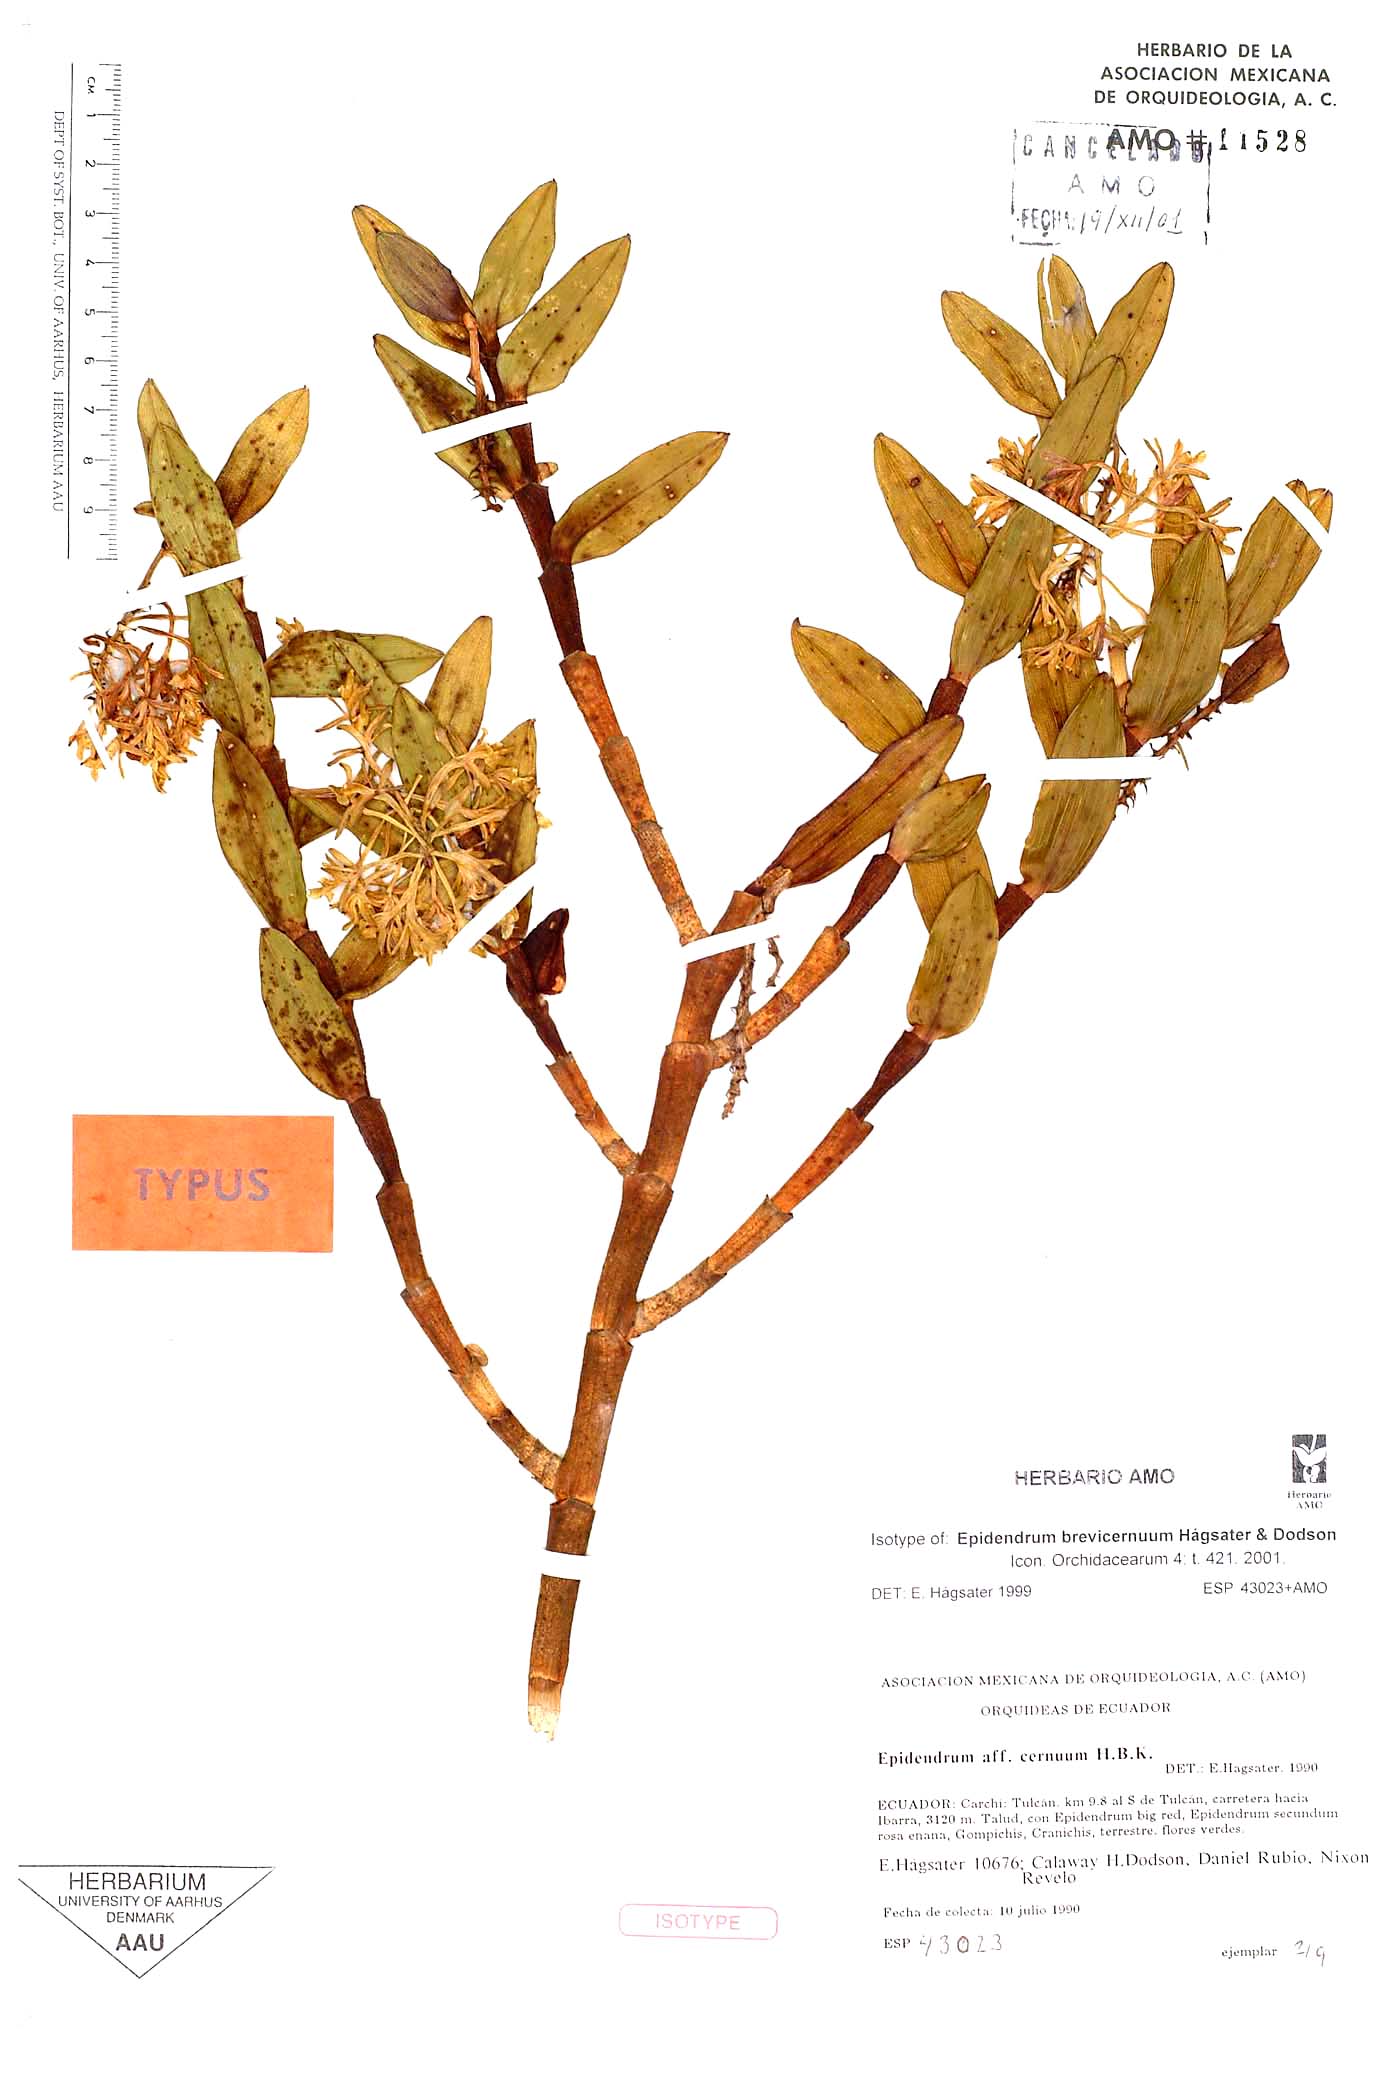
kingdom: Plantae
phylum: Tracheophyta
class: Liliopsida
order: Asparagales
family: Orchidaceae
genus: Epidendrum
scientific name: Epidendrum brevicernuum
